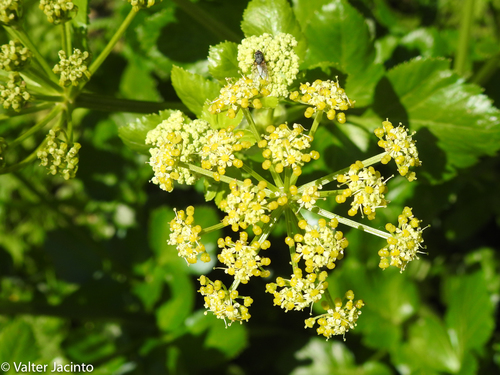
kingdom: Plantae
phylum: Tracheophyta
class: Magnoliopsida
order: Apiales
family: Apiaceae
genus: Smyrnium
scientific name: Smyrnium olusatrum
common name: Alexanders
